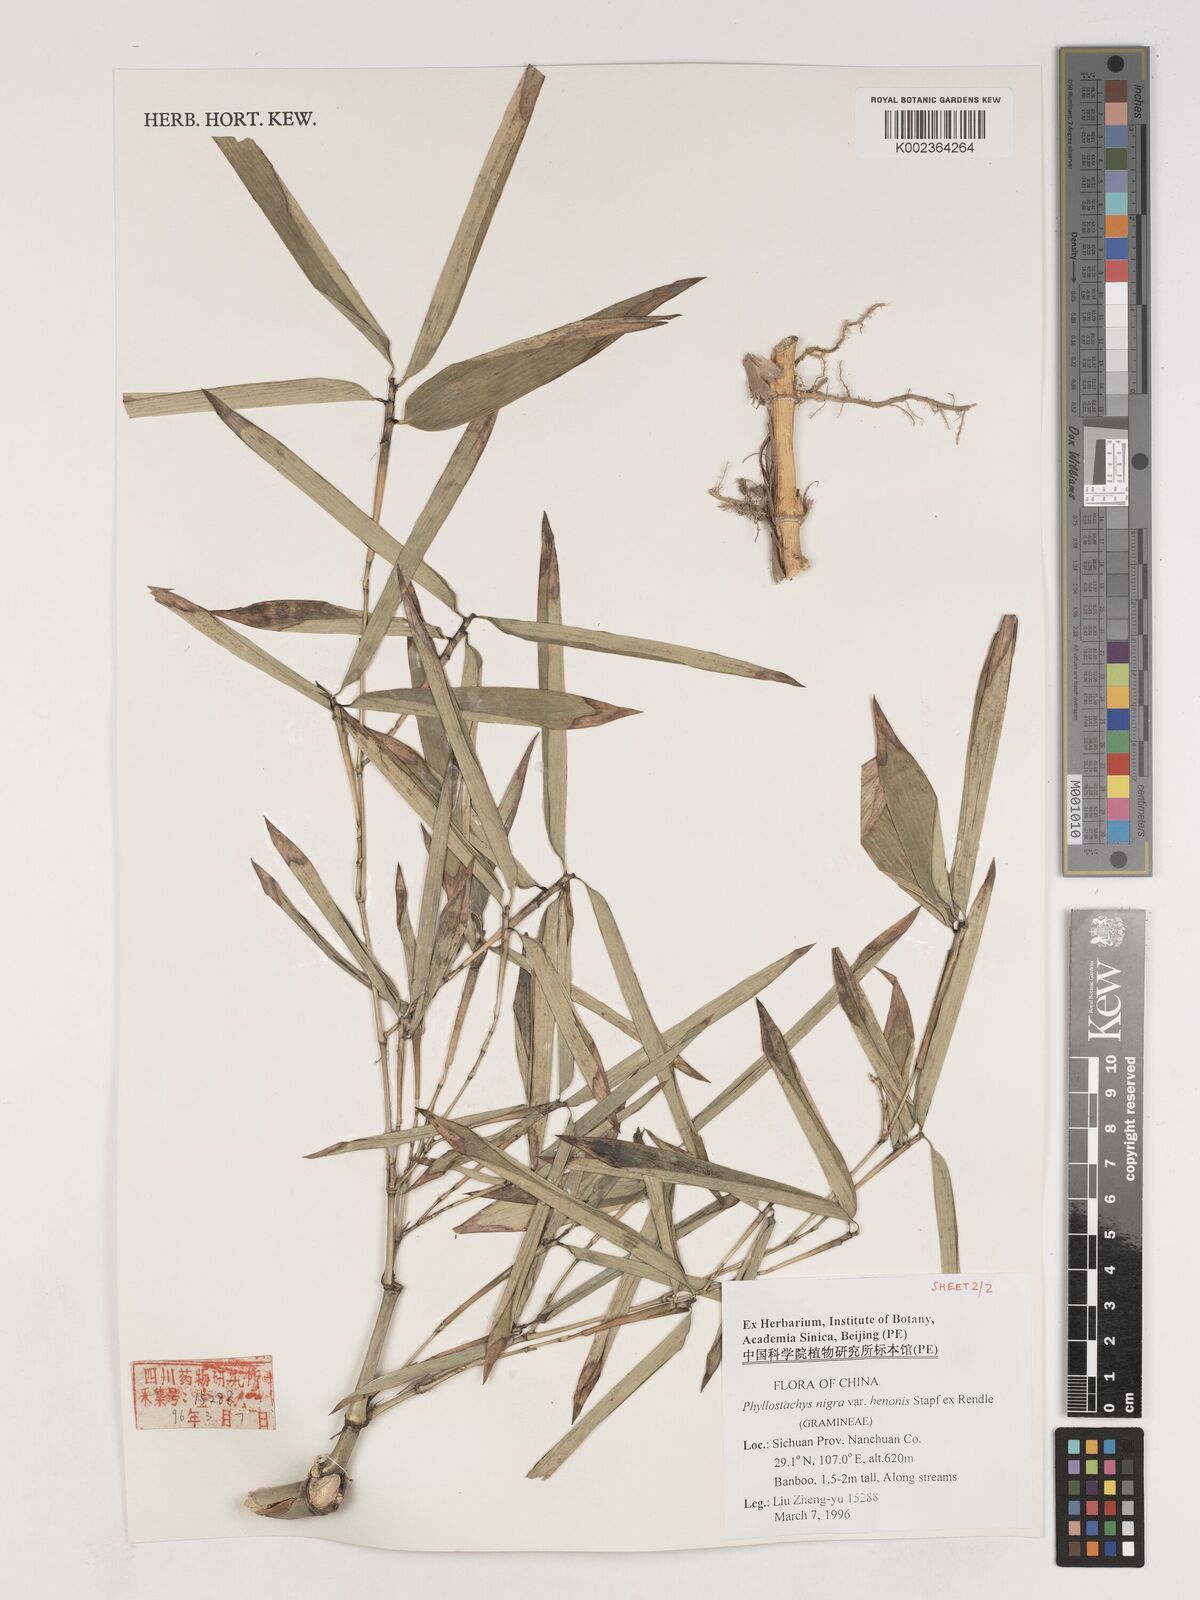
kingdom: Plantae
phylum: Tracheophyta
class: Liliopsida
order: Poales
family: Poaceae
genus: Phyllostachys
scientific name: Phyllostachys nigra
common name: Black bamboo
